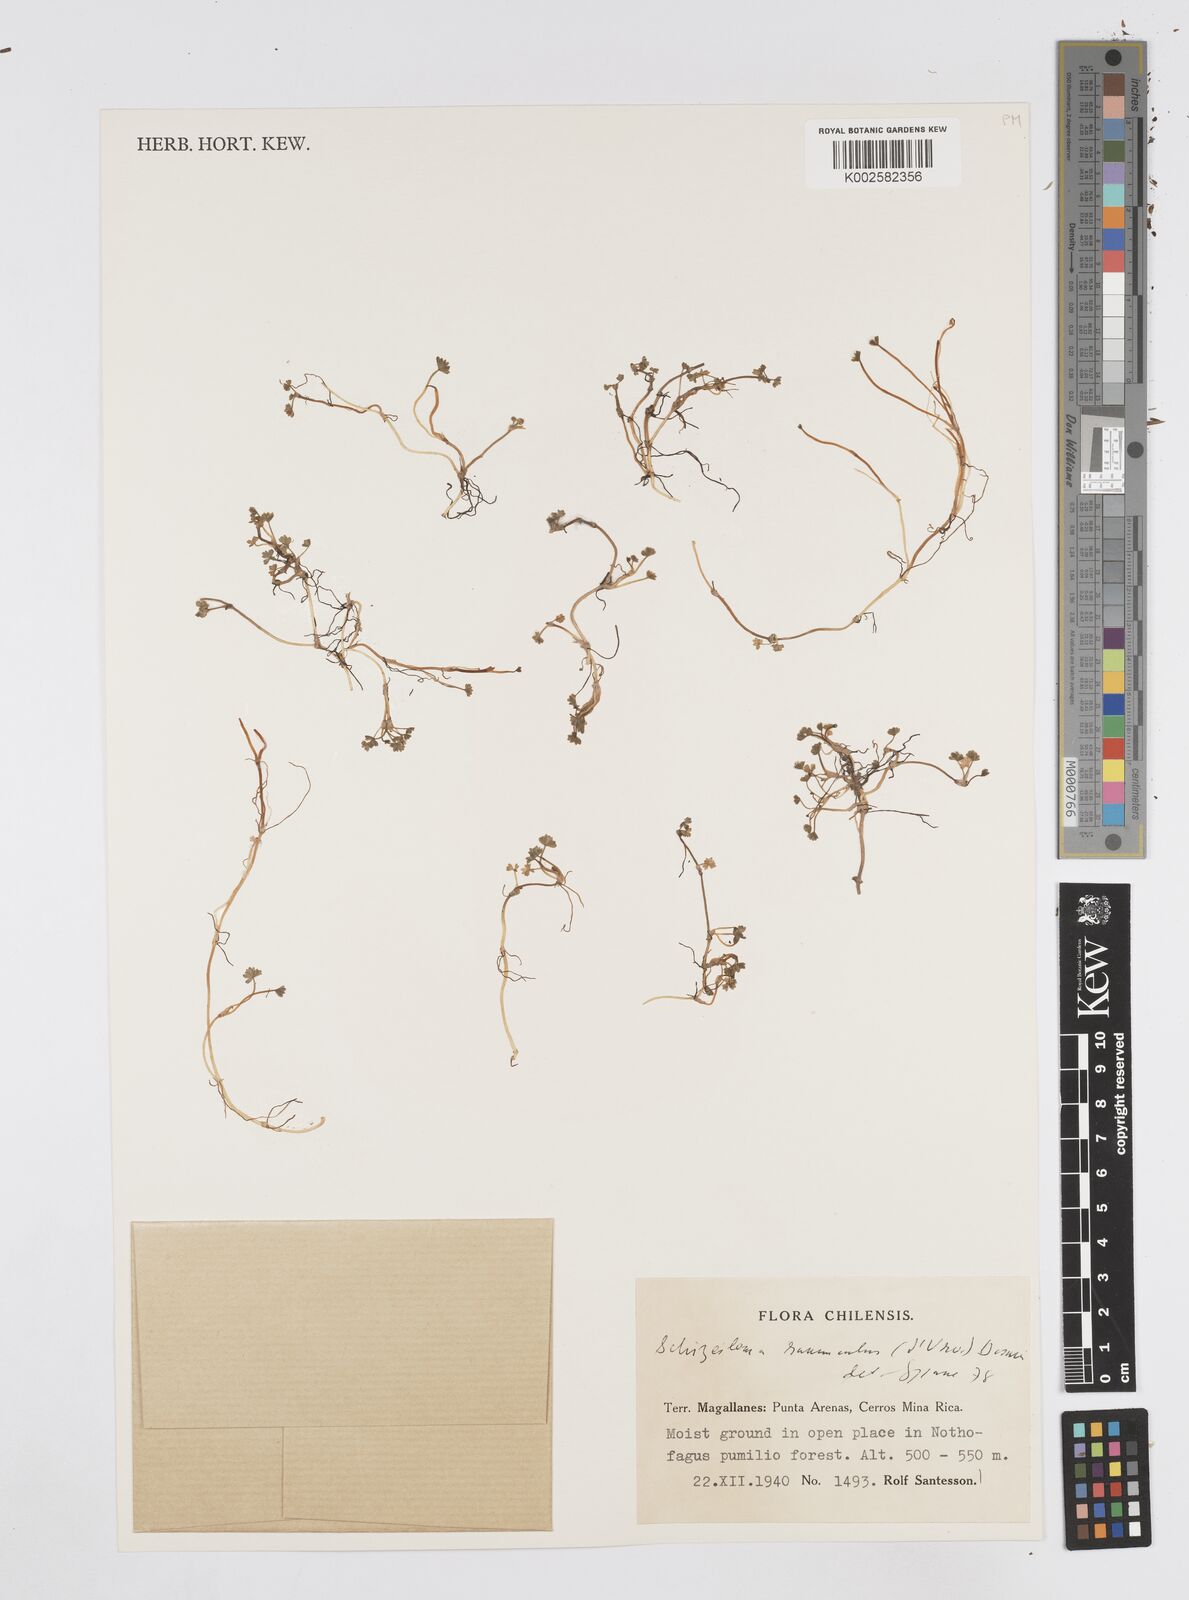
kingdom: Plantae
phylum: Tracheophyta
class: Magnoliopsida
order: Apiales
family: Apiaceae
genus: Azorella
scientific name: Azorella ranunculus
